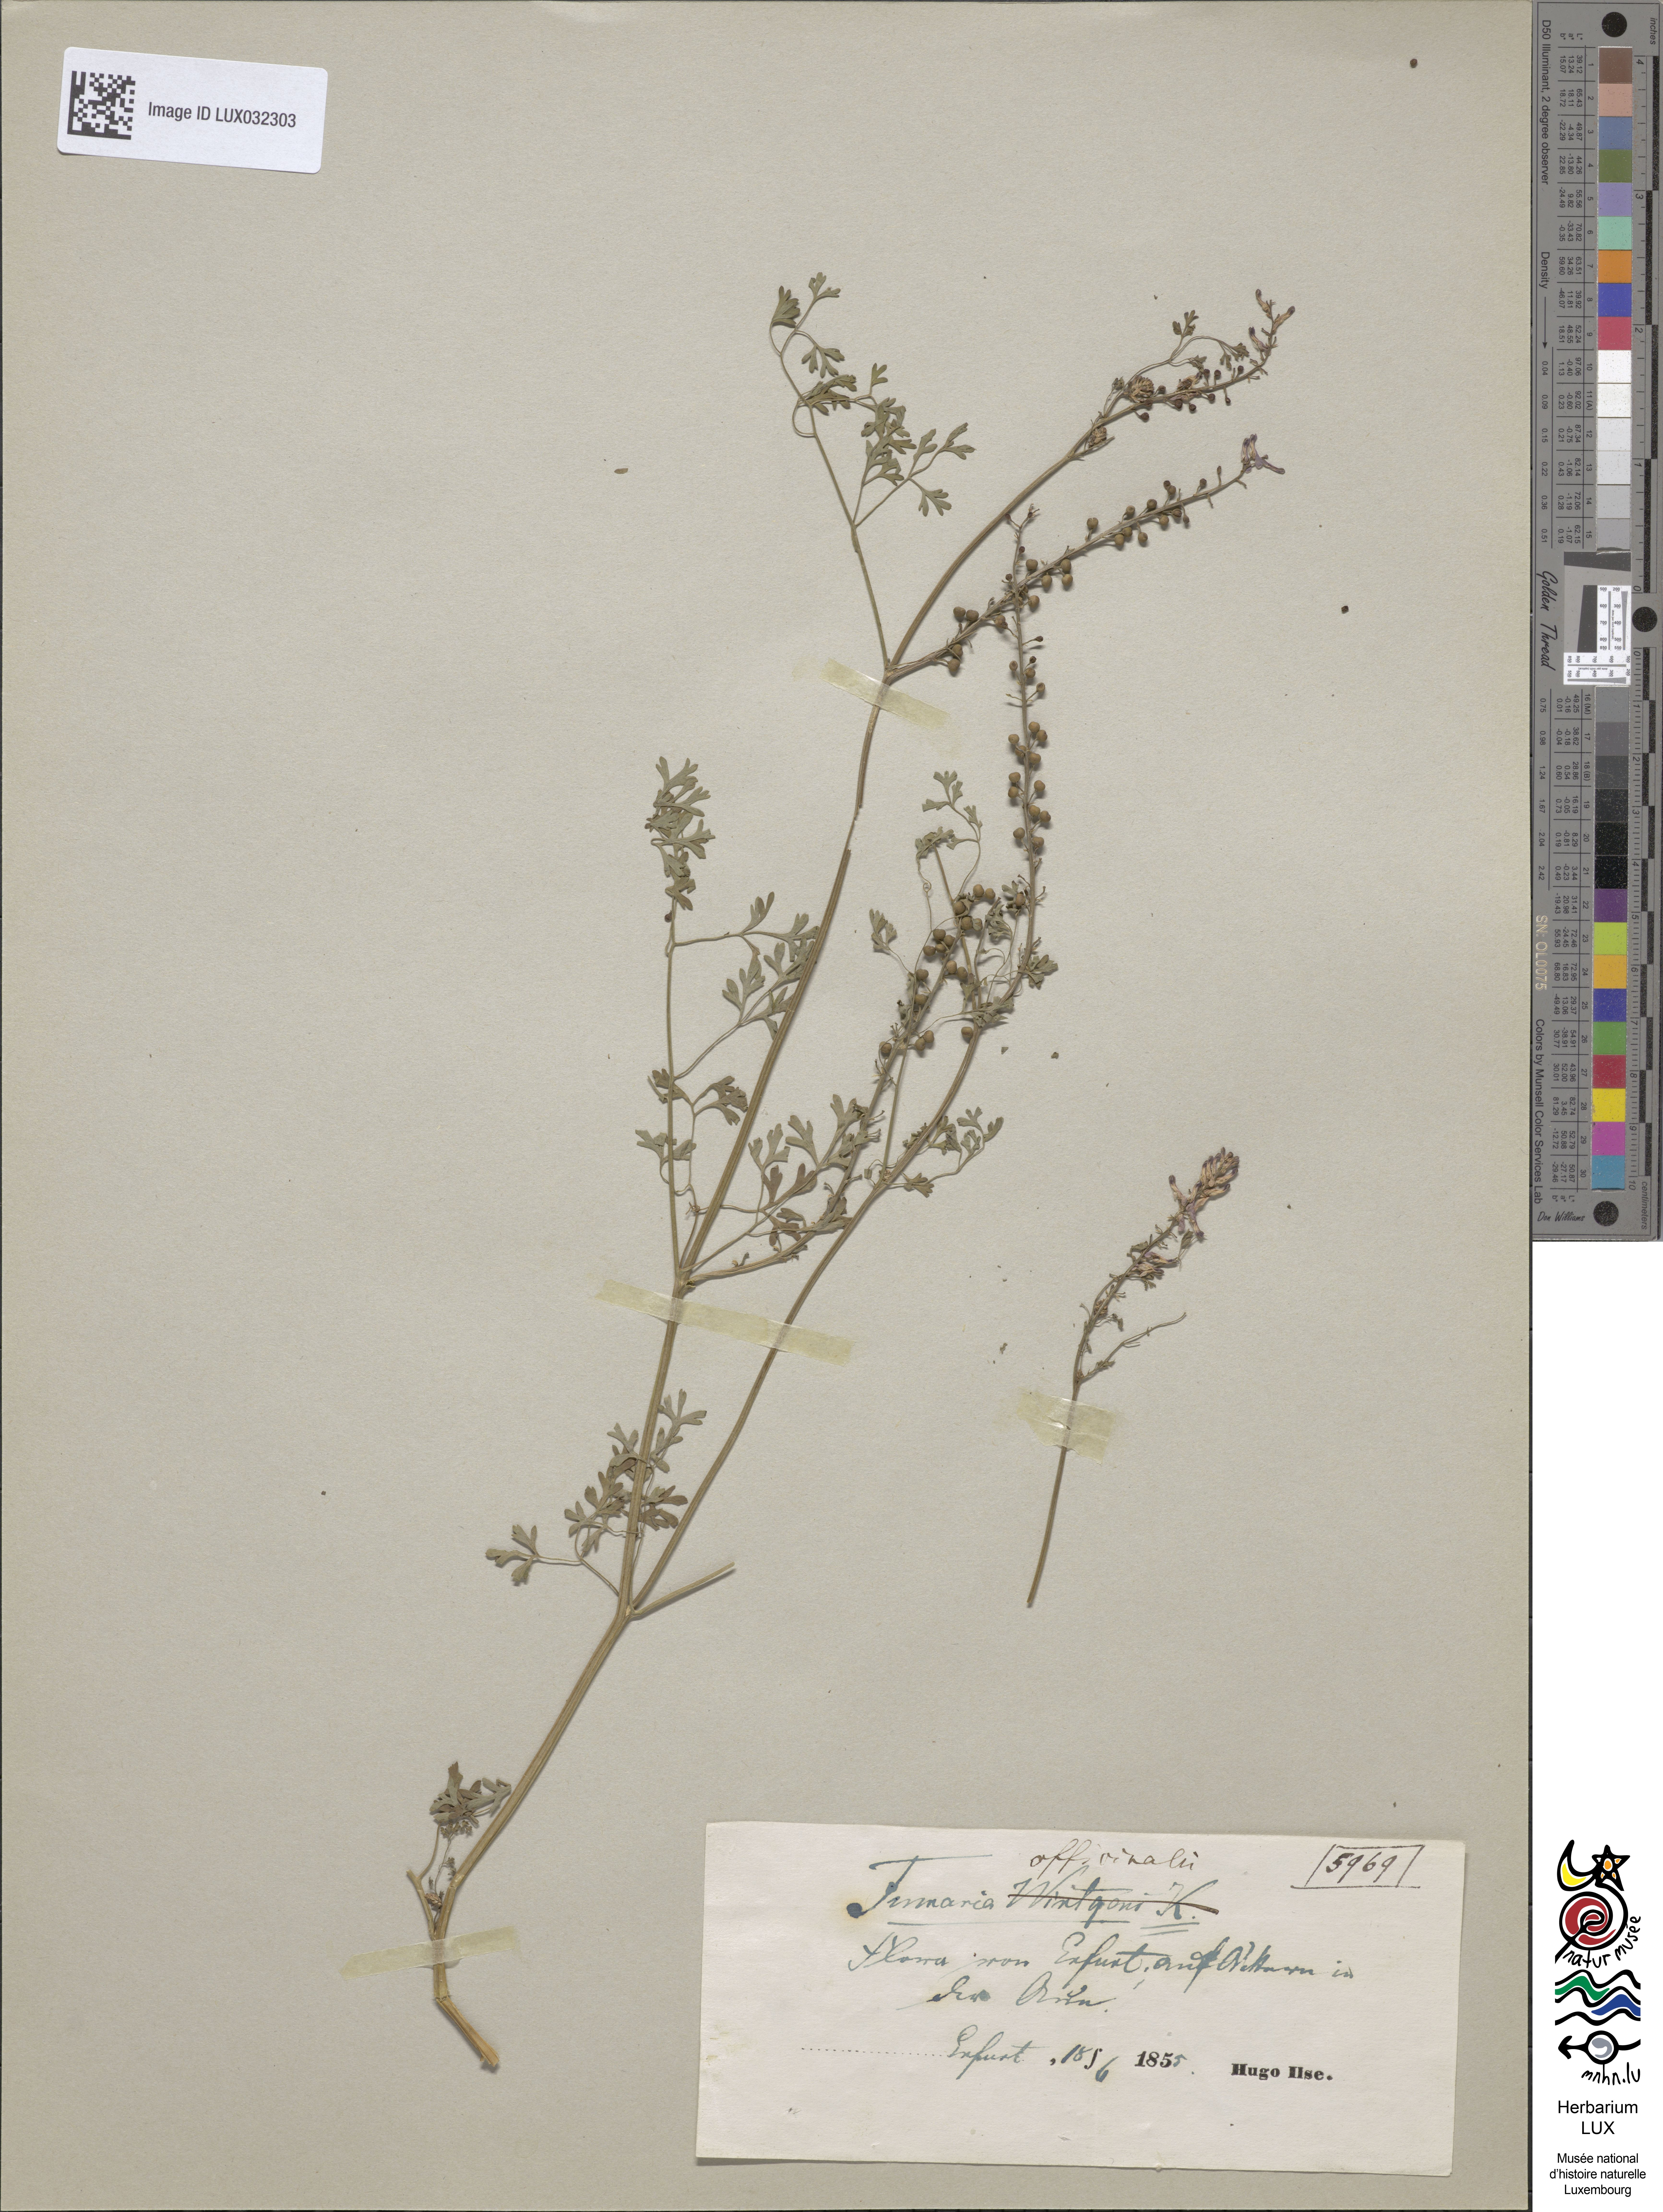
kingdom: Plantae
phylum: Tracheophyta
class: Magnoliopsida
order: Ranunculales
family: Papaveraceae
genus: Fumaria
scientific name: Fumaria officinalis
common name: Common fumitory
